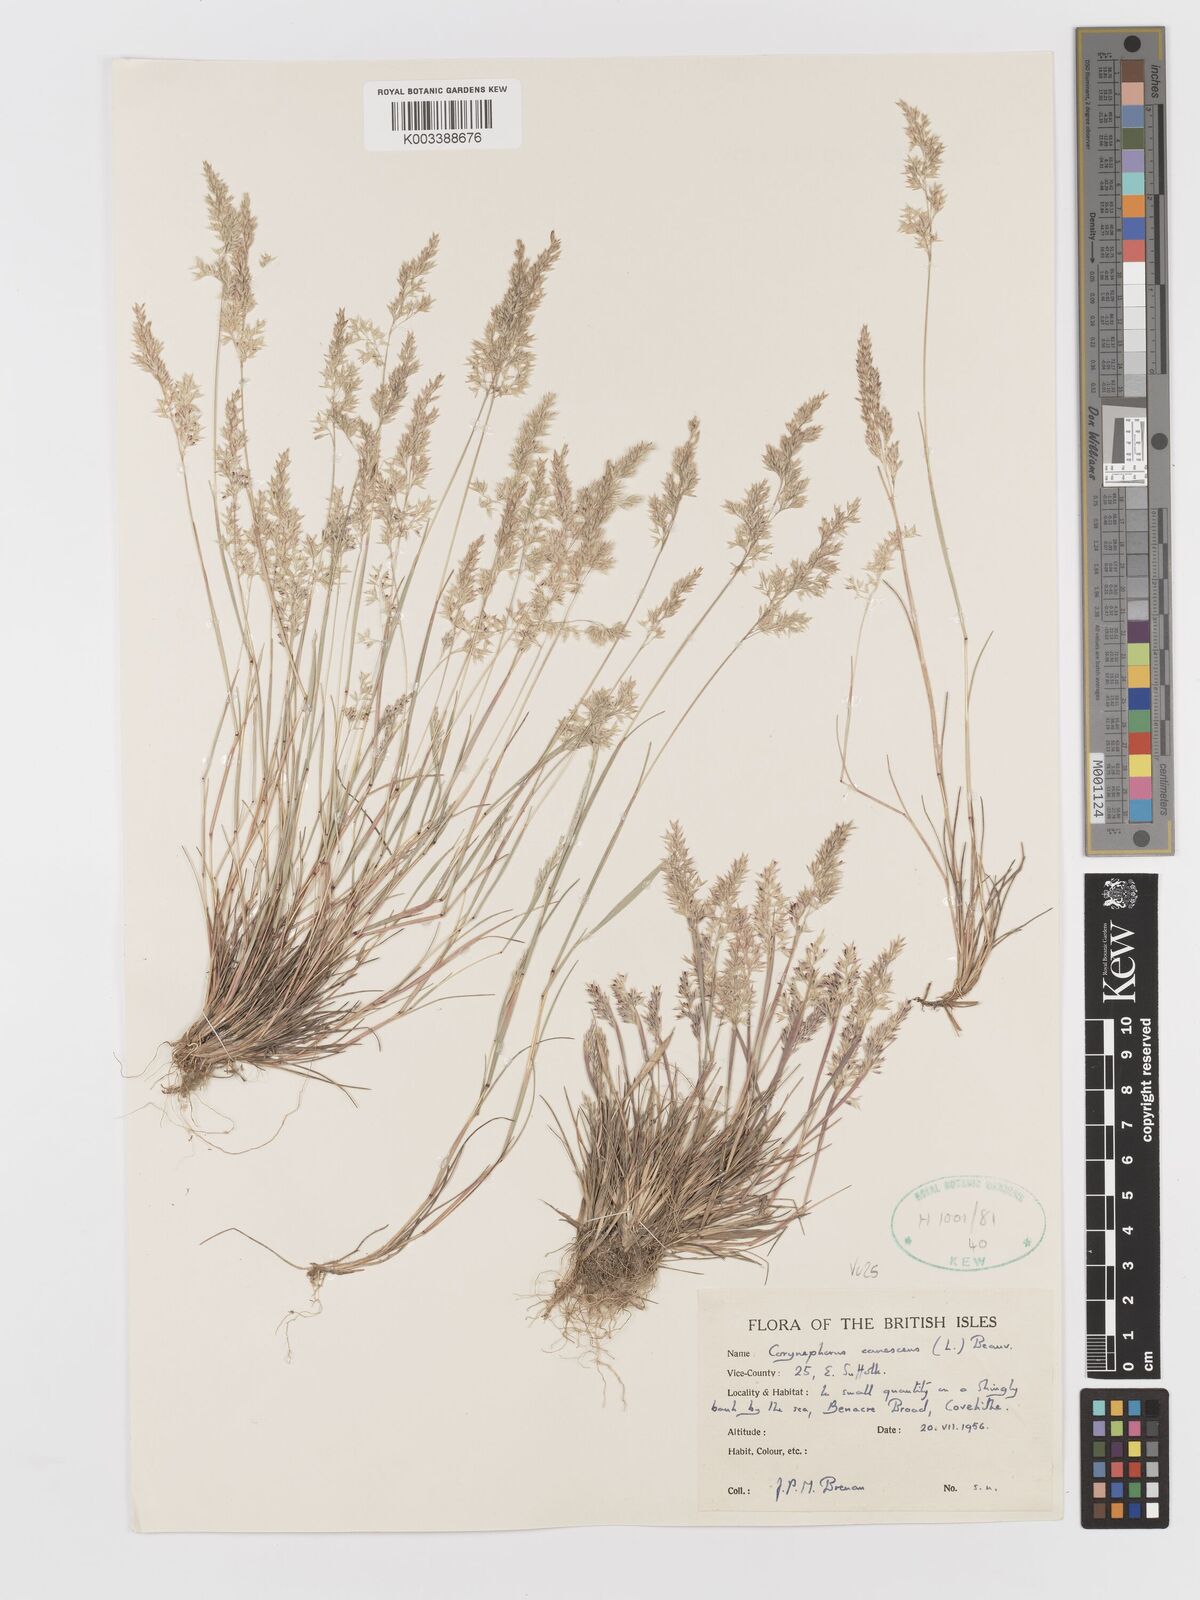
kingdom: Plantae
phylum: Tracheophyta
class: Liliopsida
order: Poales
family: Poaceae
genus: Corynephorus
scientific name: Corynephorus canescens
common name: Grey hair-grass
